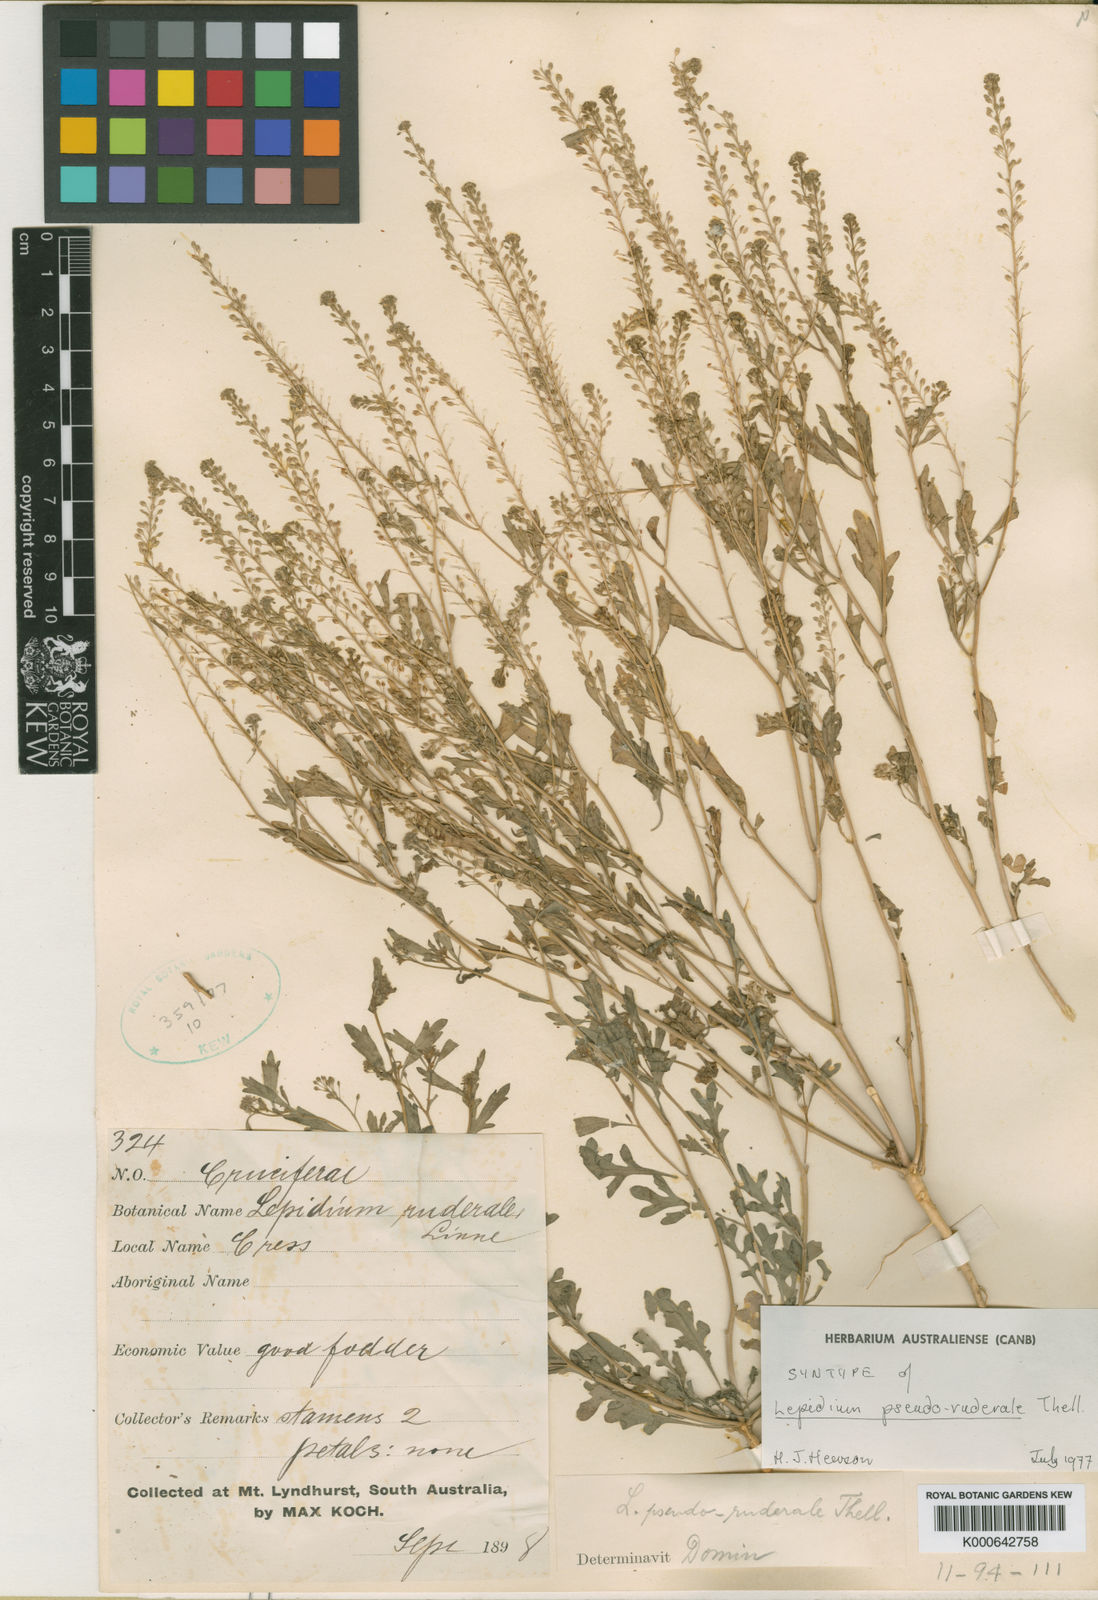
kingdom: Plantae
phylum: Tracheophyta
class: Magnoliopsida
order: Brassicales
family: Brassicaceae
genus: Lepidium
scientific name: Lepidium pseudoruderale
